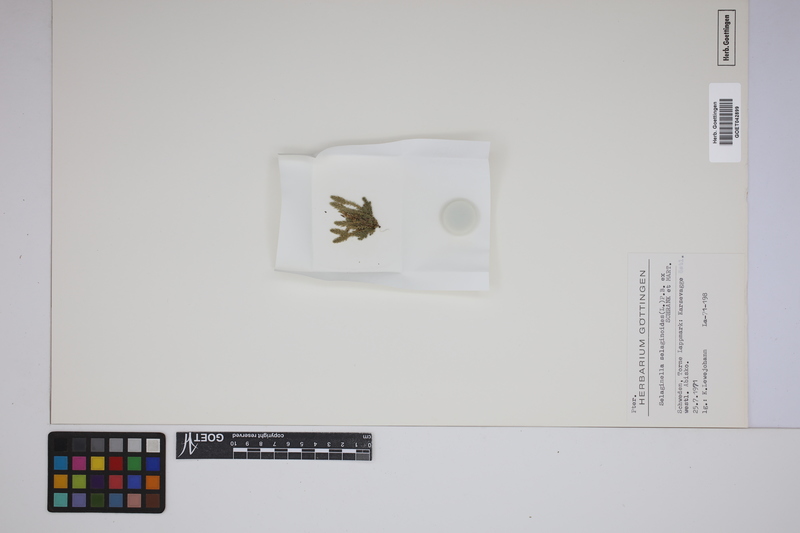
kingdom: Plantae
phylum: Tracheophyta
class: Lycopodiopsida
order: Selaginellales
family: Selaginellaceae
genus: Selaginella
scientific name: Selaginella selaginoides
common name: Prickly mountain-moss
